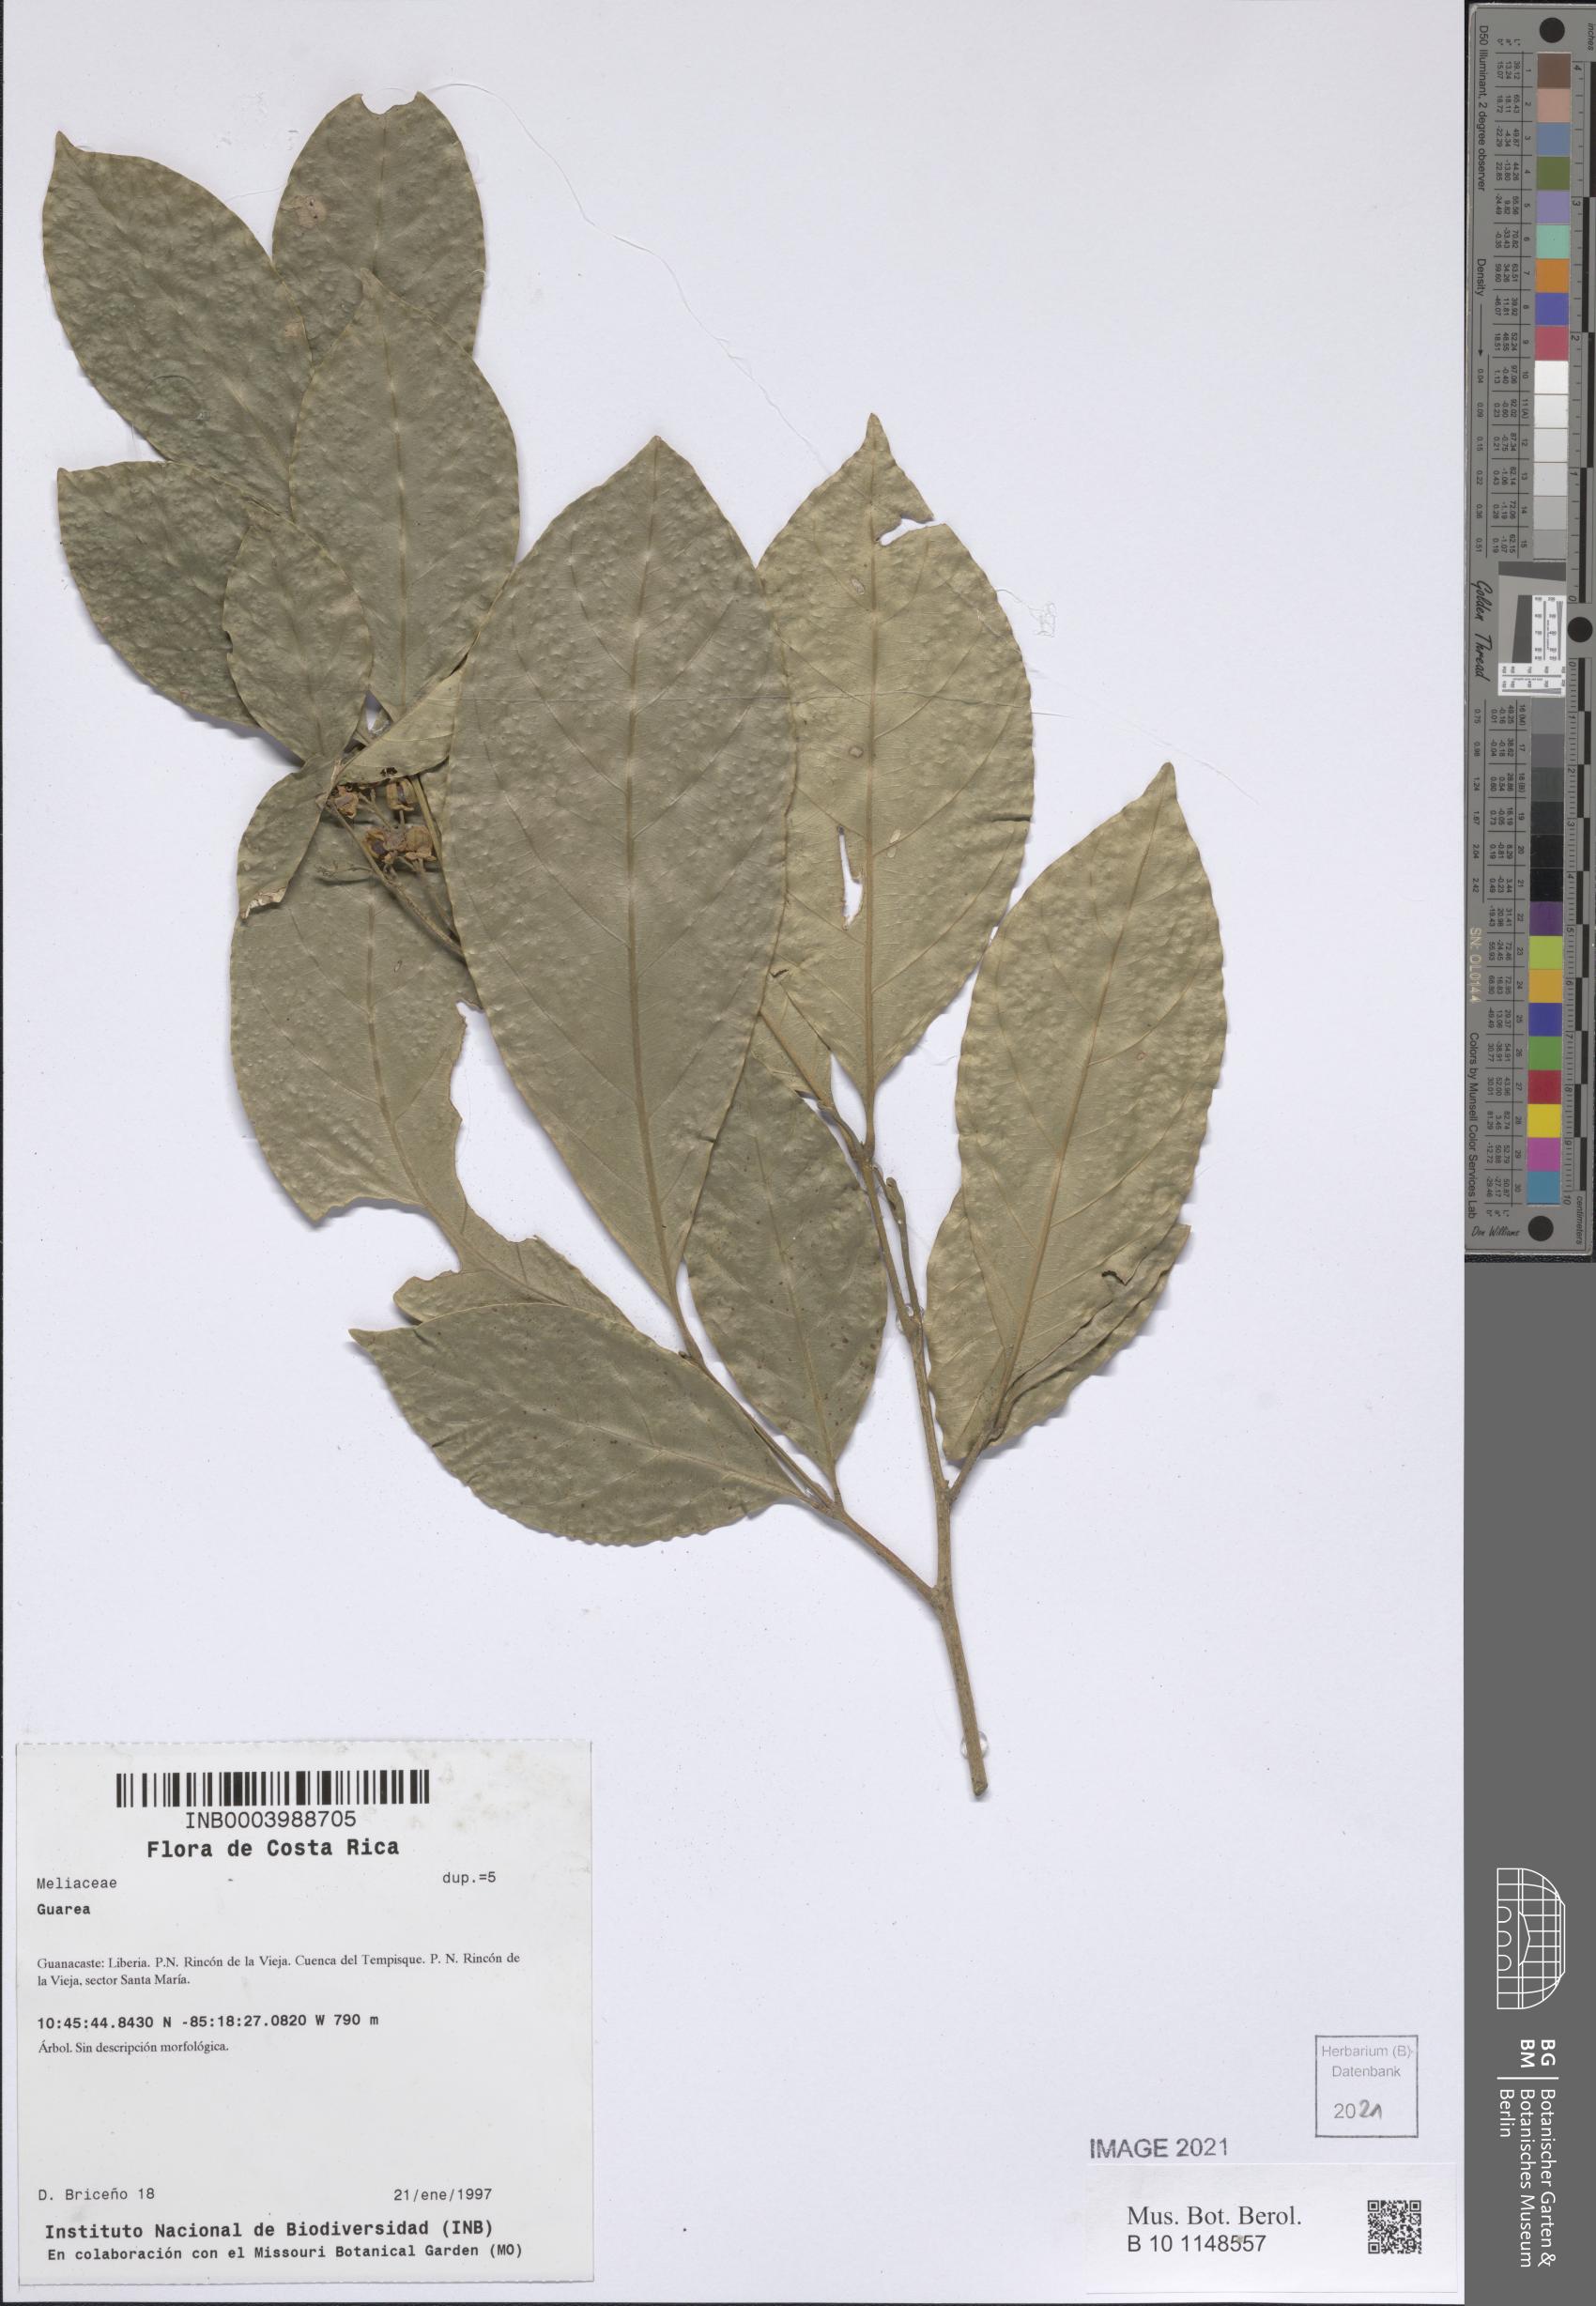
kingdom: Plantae
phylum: Tracheophyta
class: Magnoliopsida
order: Sapindales
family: Meliaceae
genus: Guarea
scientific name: Guarea
